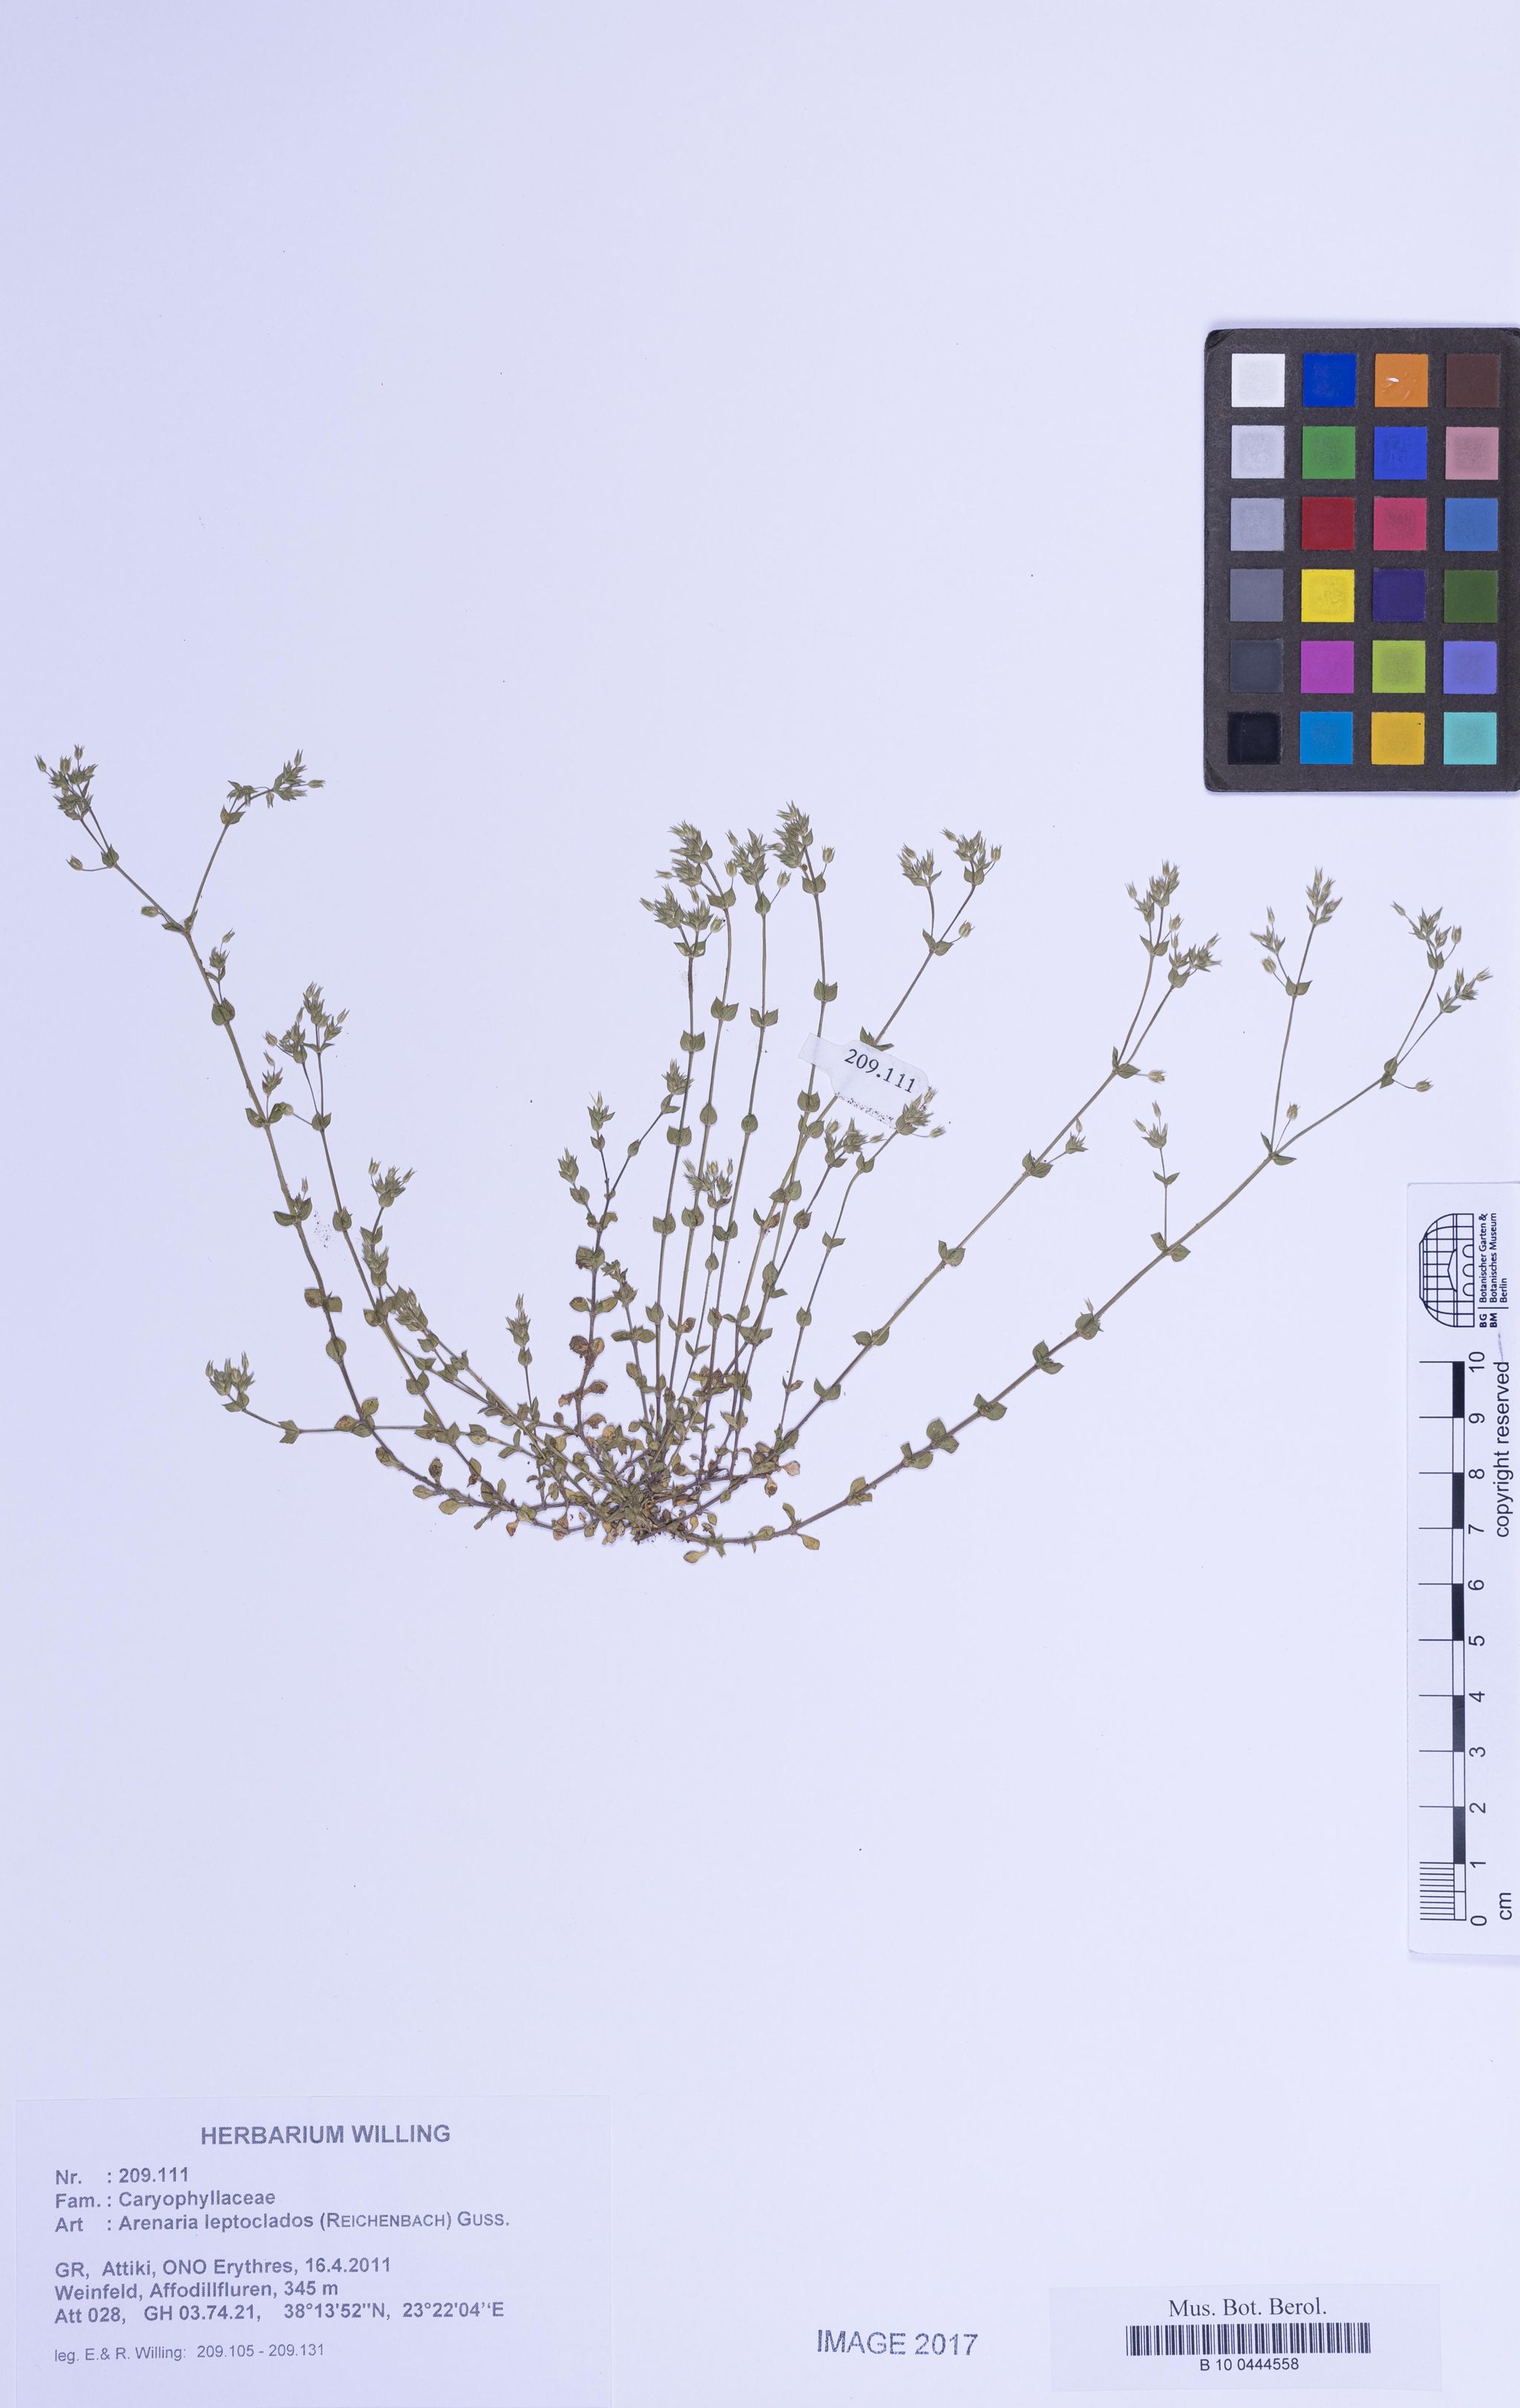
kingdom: Plantae
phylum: Tracheophyta
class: Magnoliopsida
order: Caryophyllales
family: Caryophyllaceae
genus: Arenaria
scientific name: Arenaria leptoclados
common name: Thyme-leaved sandwort
